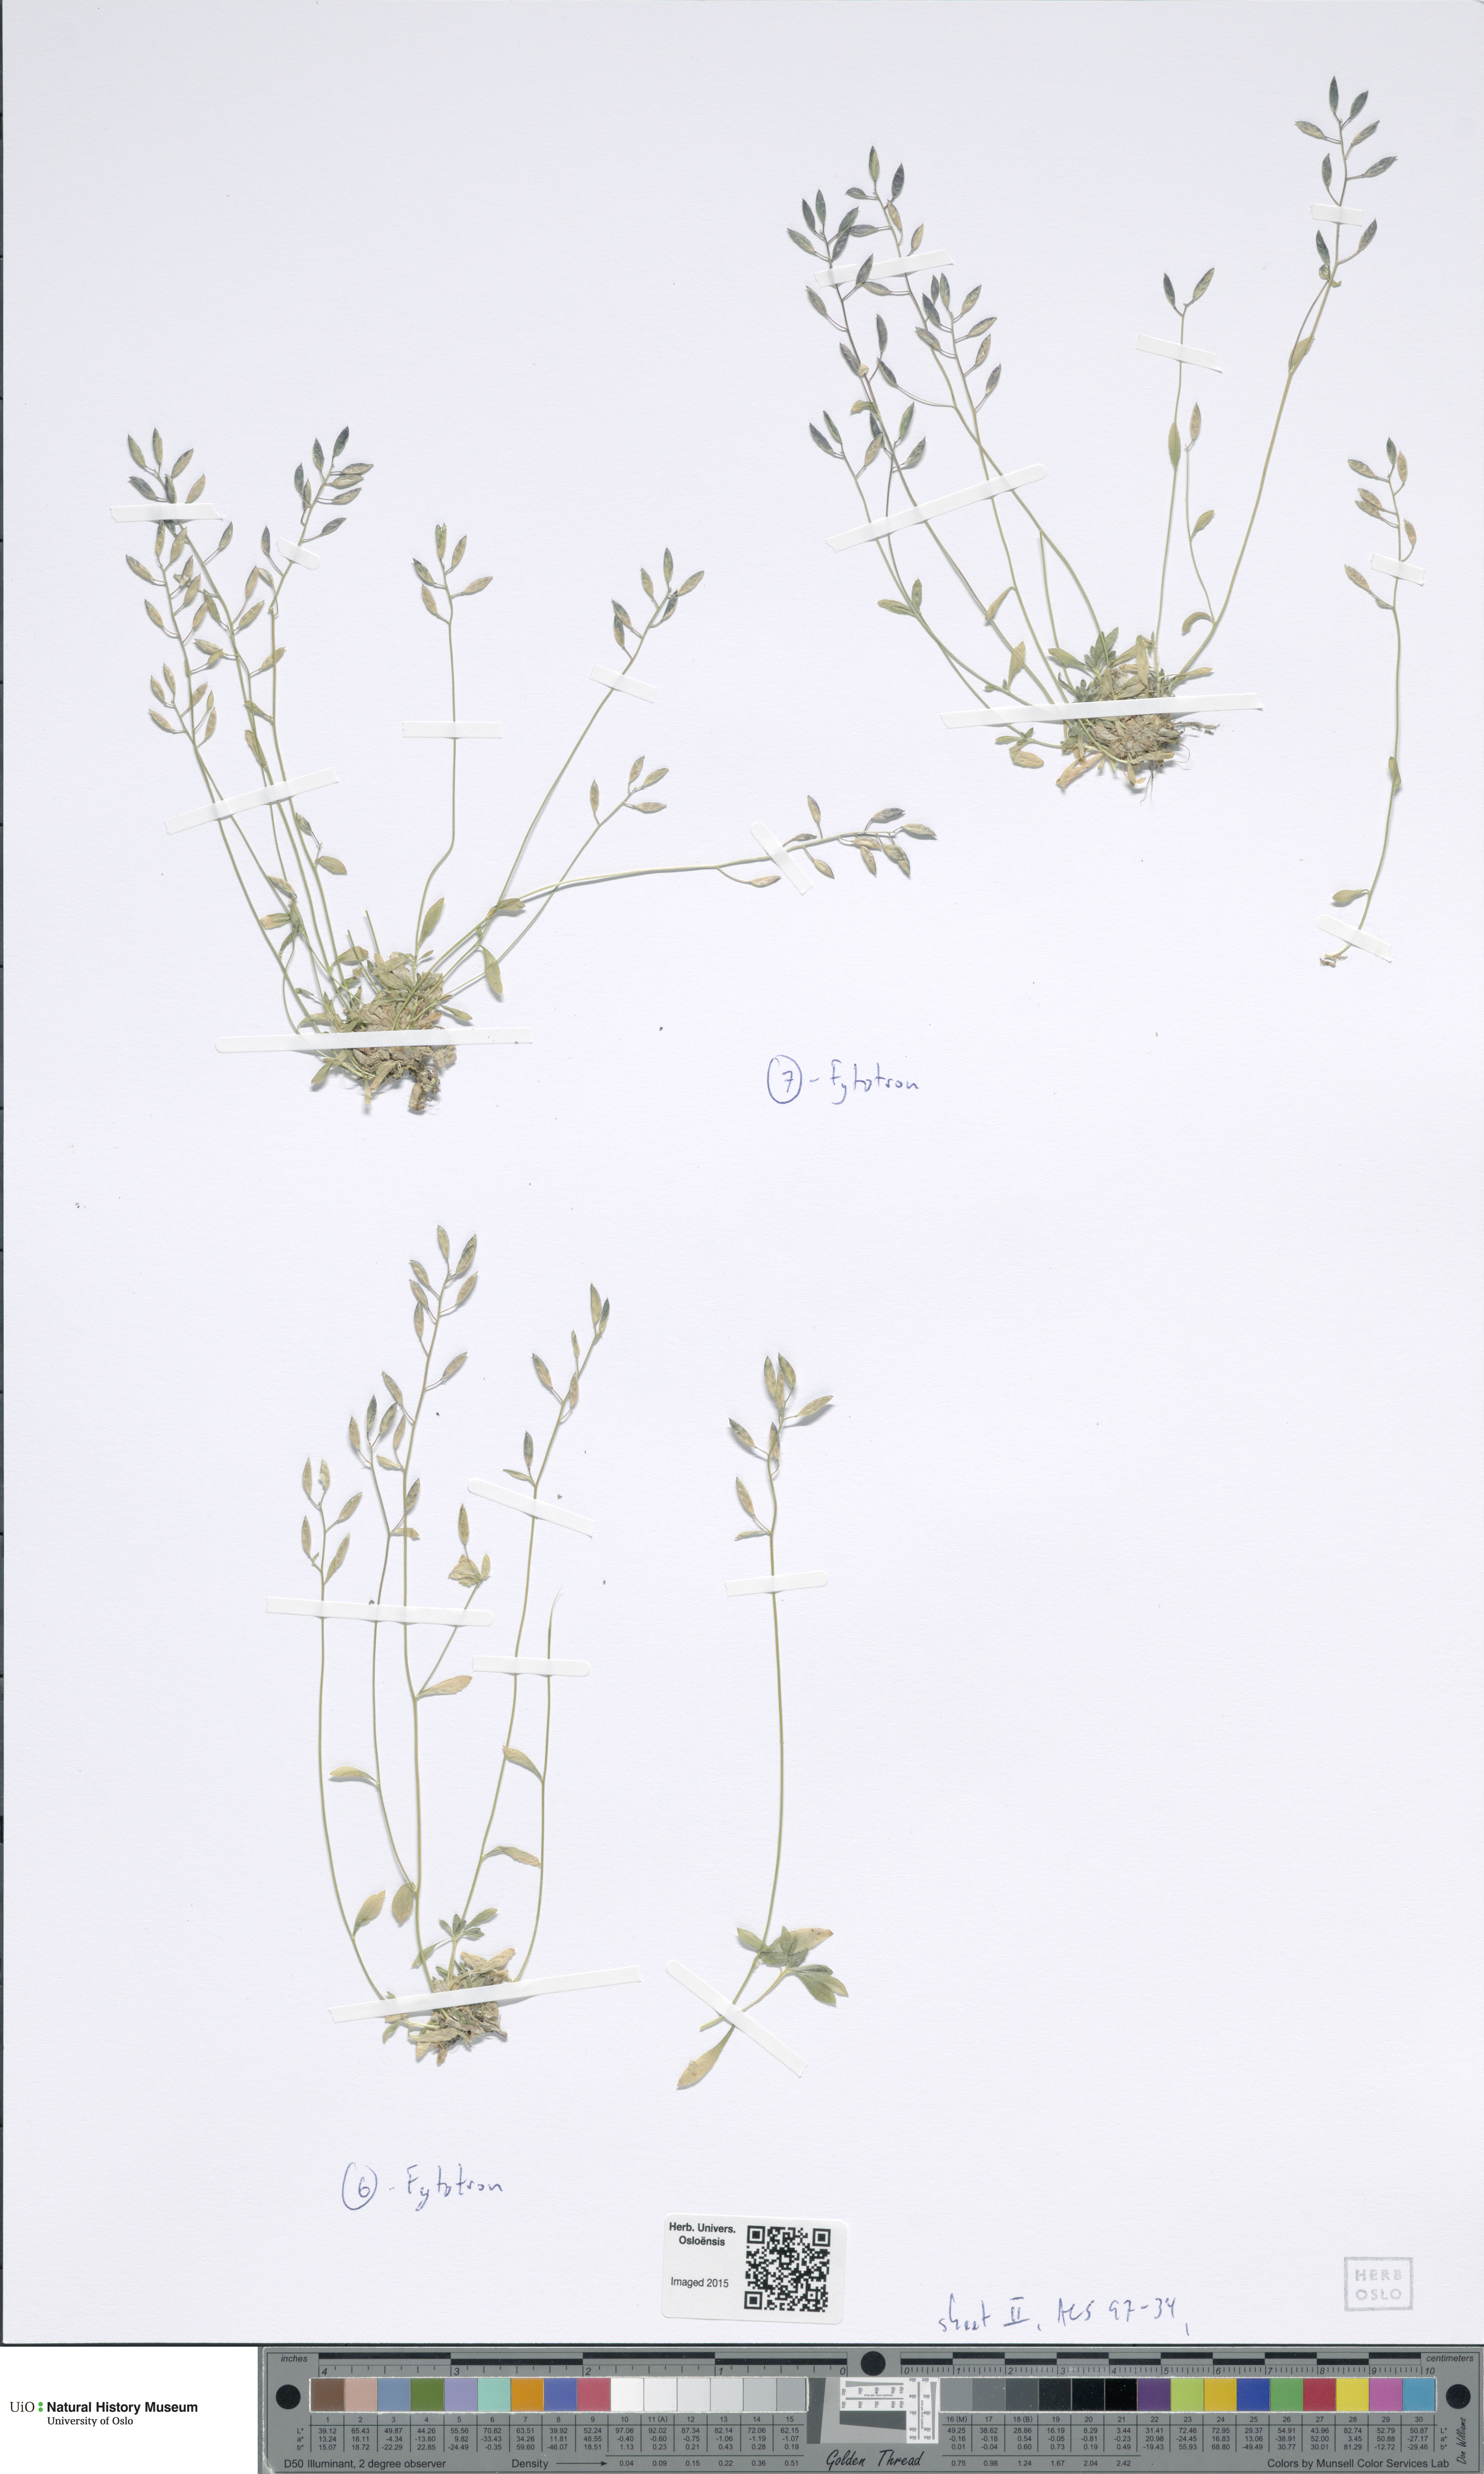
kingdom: Plantae
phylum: Tracheophyta
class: Magnoliopsida
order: Brassicales
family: Brassicaceae
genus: Draba
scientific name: Draba fladnizensis
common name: Austrian draba
